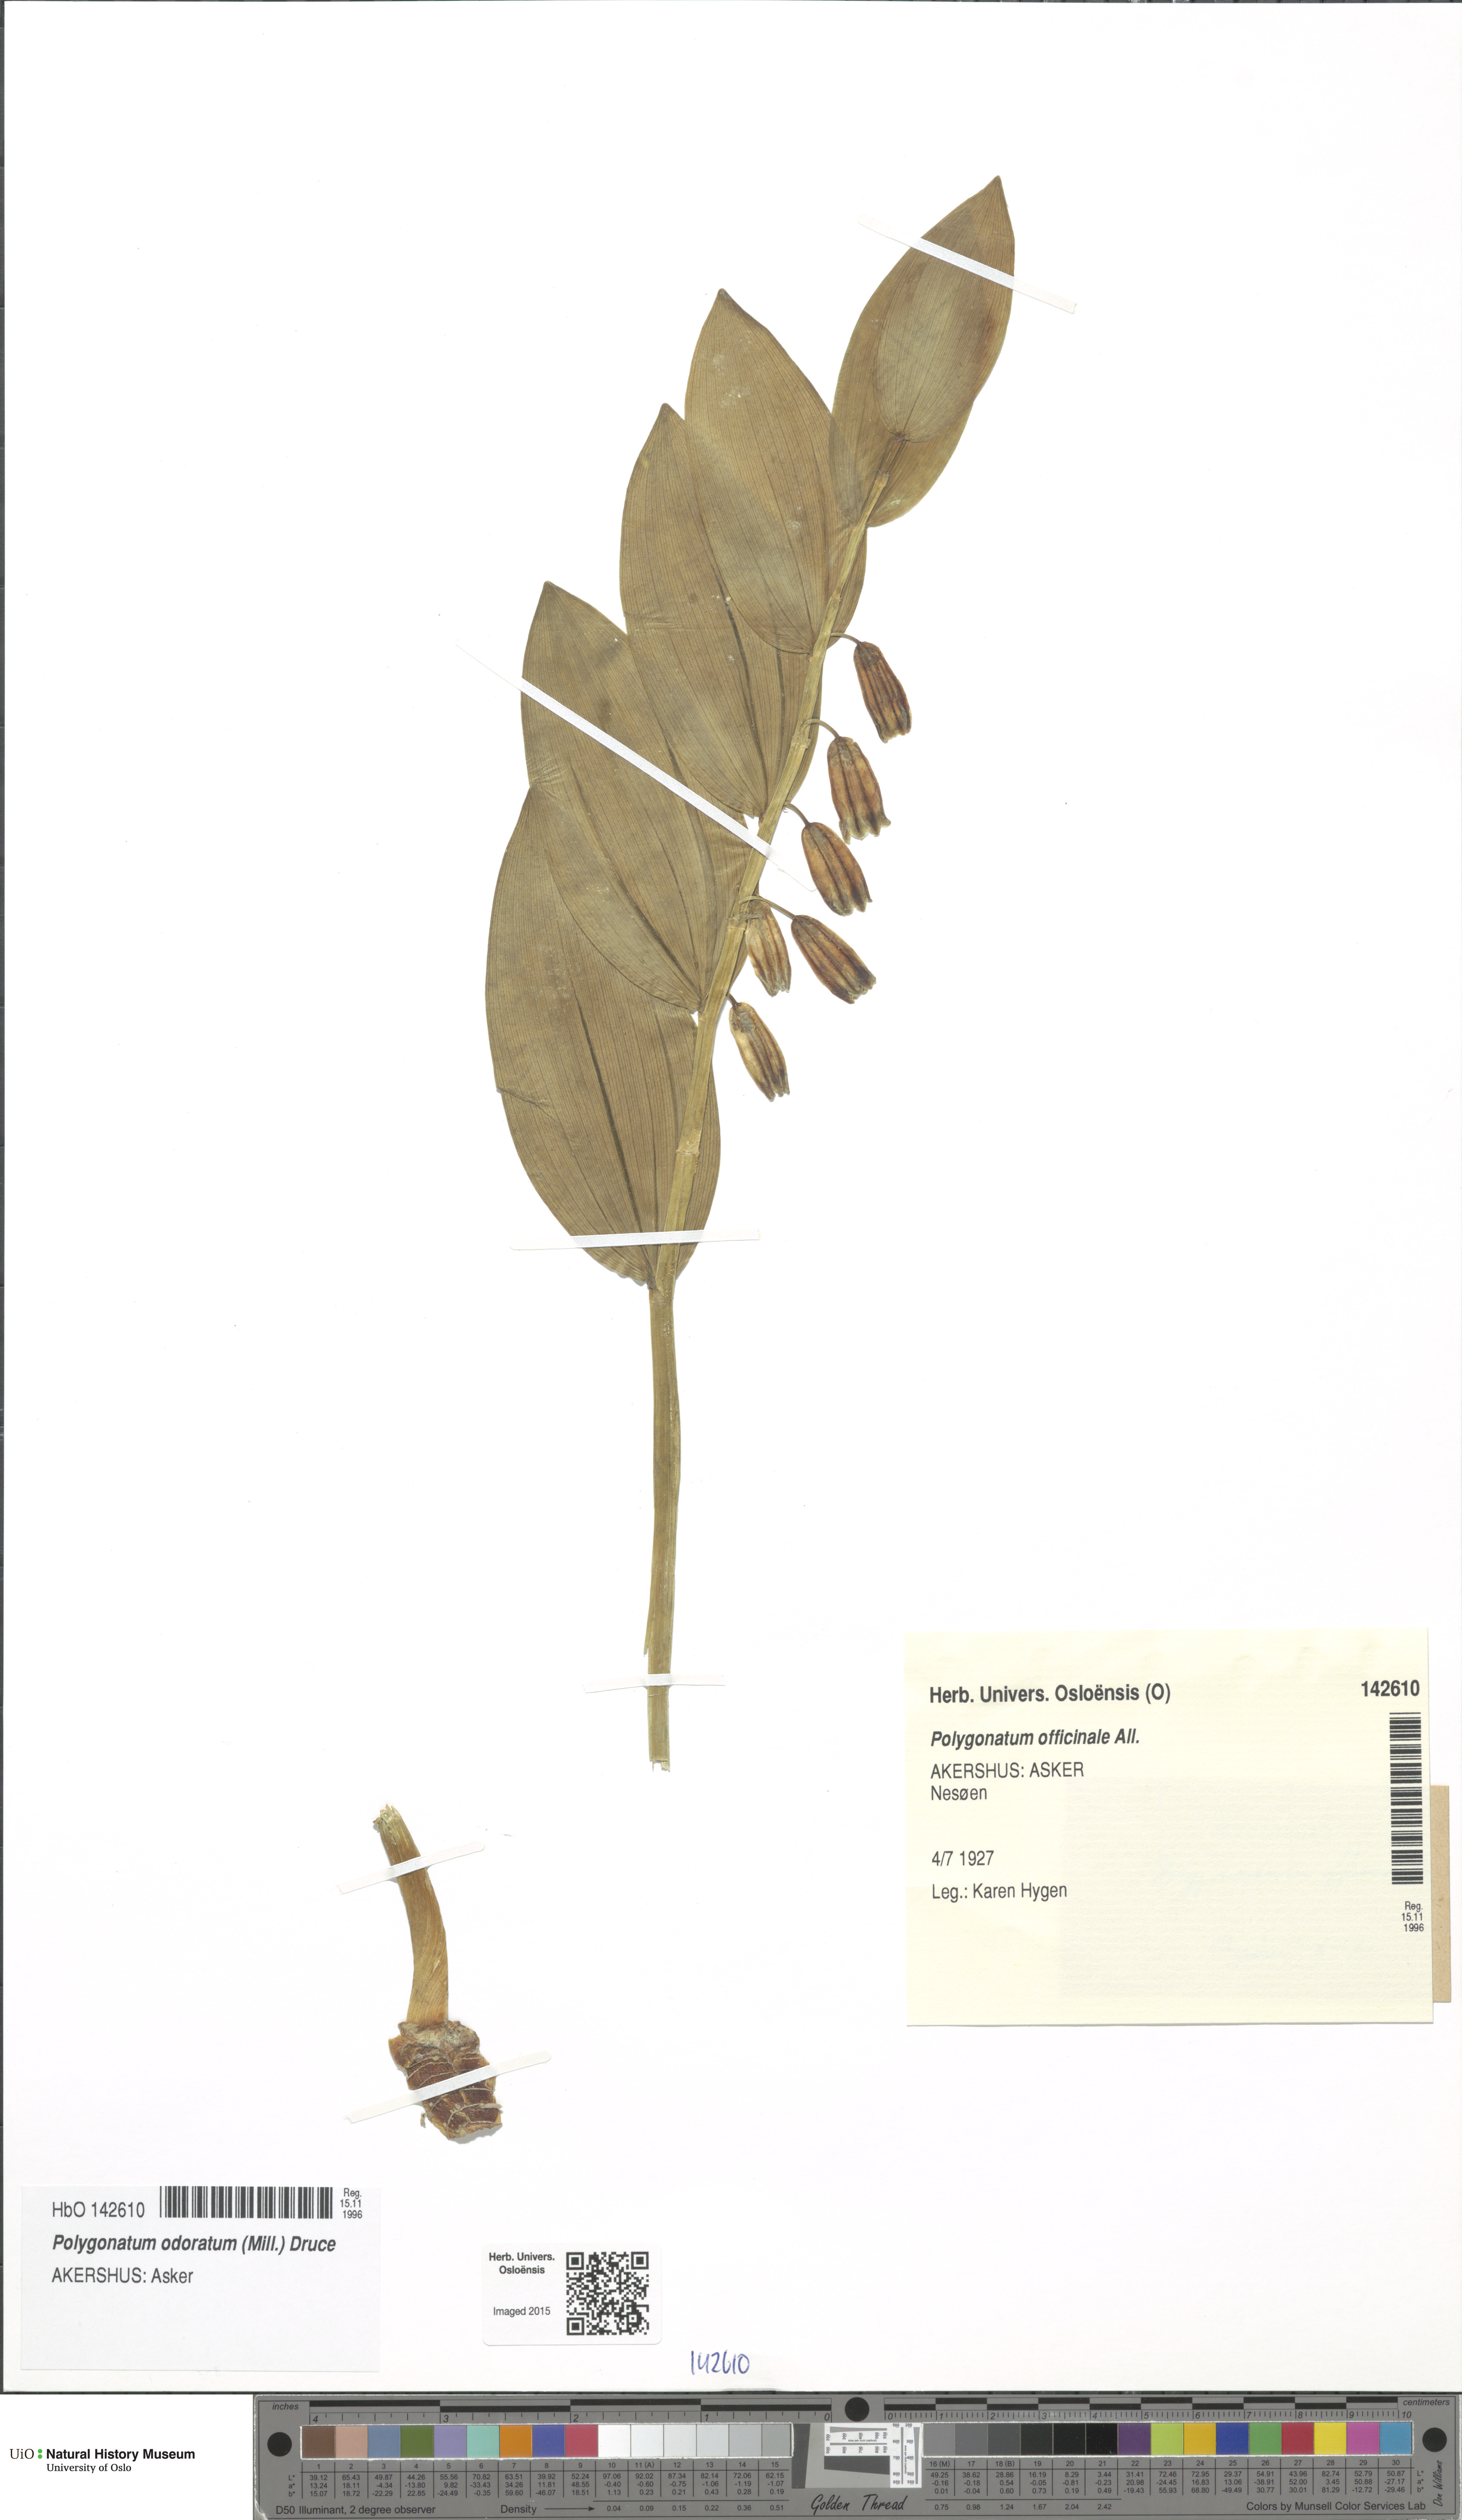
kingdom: Plantae
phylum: Tracheophyta
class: Liliopsida
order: Asparagales
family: Asparagaceae
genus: Polygonatum
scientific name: Polygonatum odoratum
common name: Angular solomon's-seal
